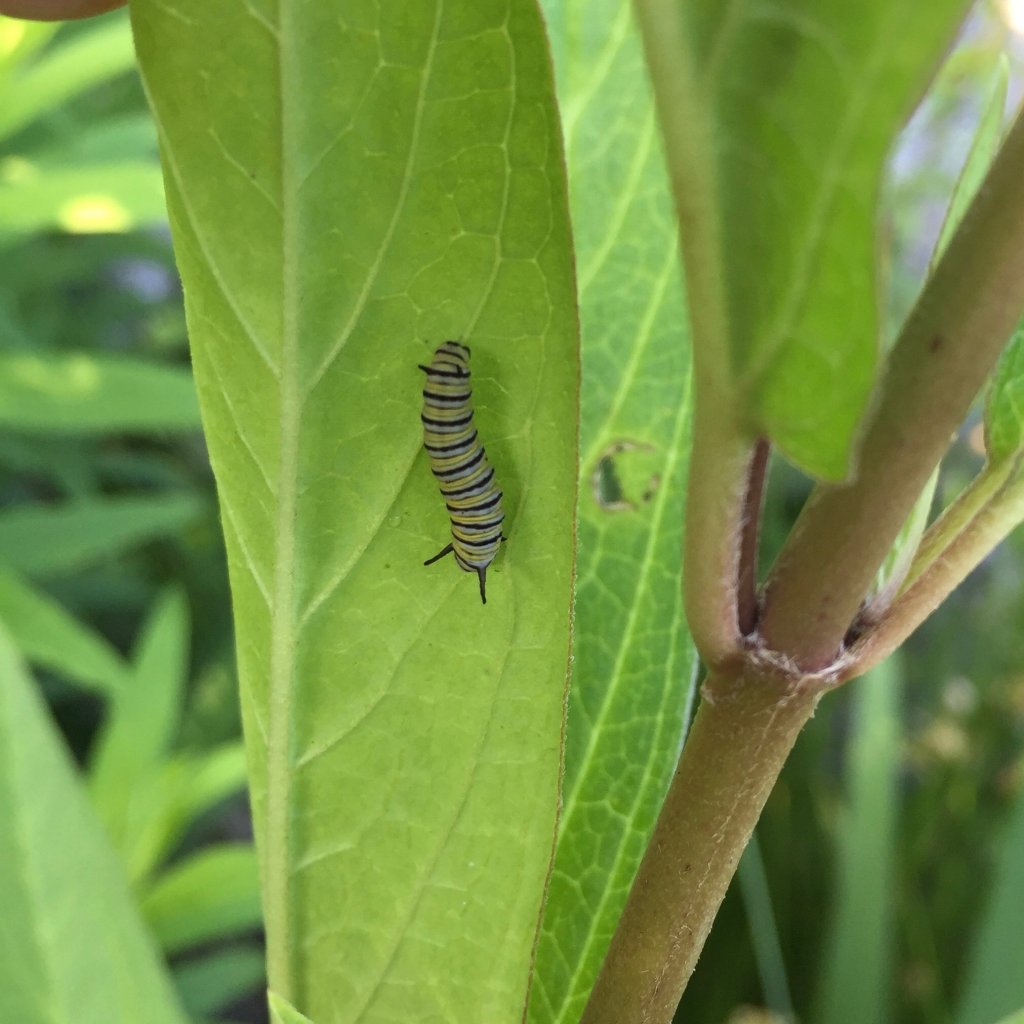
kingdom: Animalia
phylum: Arthropoda
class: Insecta
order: Lepidoptera
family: Nymphalidae
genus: Danaus
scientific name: Danaus plexippus
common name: Monarch
